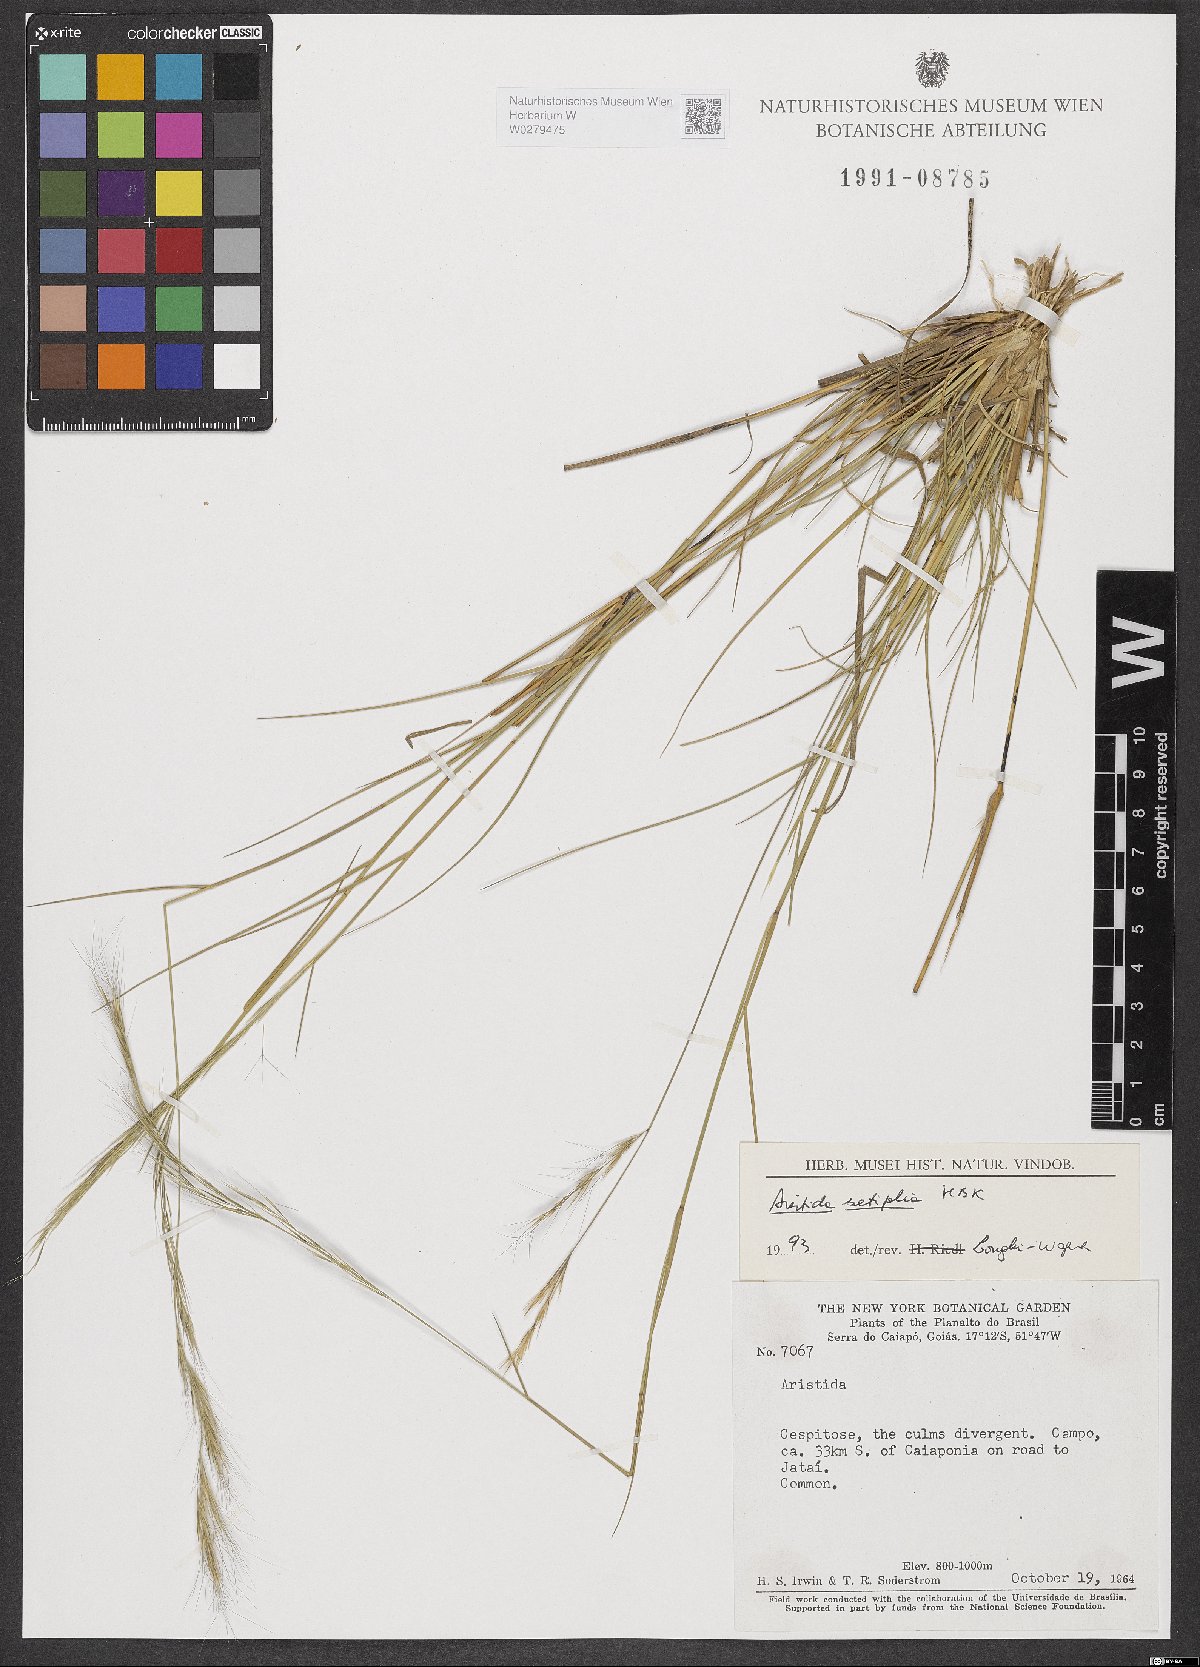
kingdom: Plantae
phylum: Tracheophyta
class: Liliopsida
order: Poales
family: Poaceae
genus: Aristida
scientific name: Aristida setifolia
